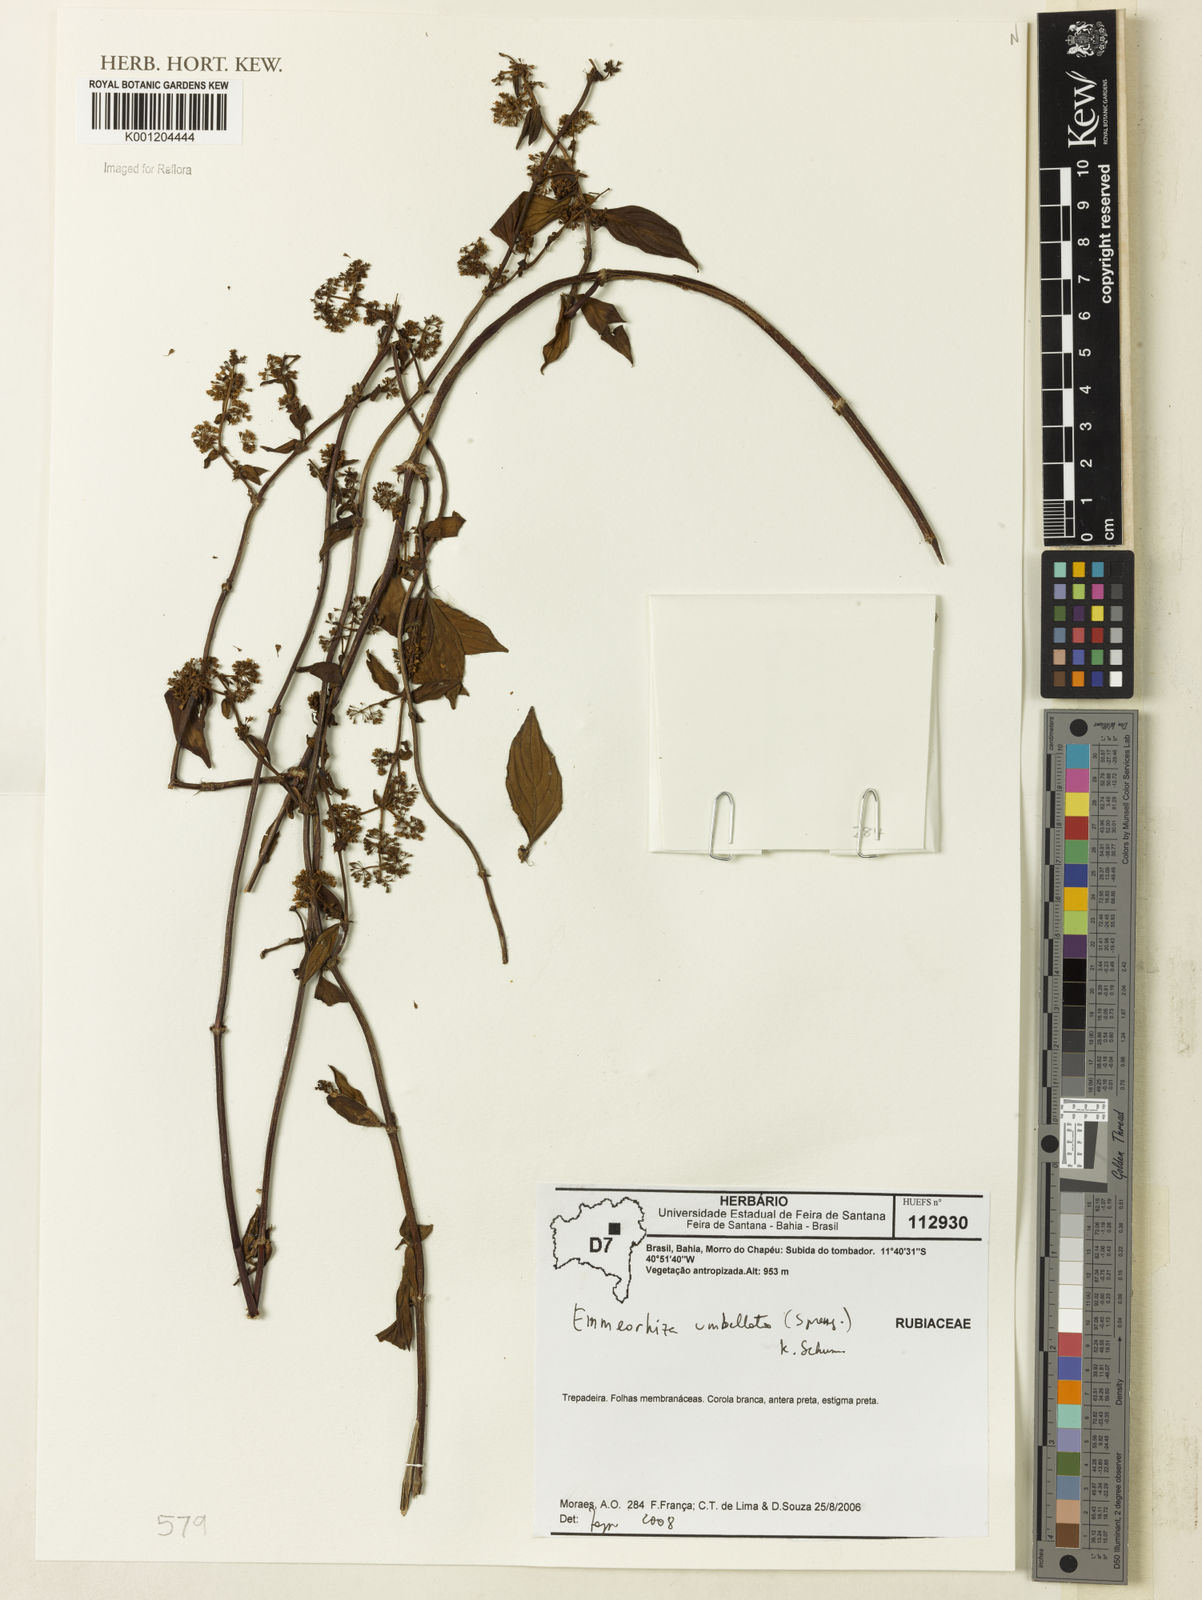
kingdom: Plantae
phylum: Tracheophyta
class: Magnoliopsida
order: Gentianales
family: Rubiaceae
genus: Emmeorhiza
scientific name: Emmeorhiza umbellata
